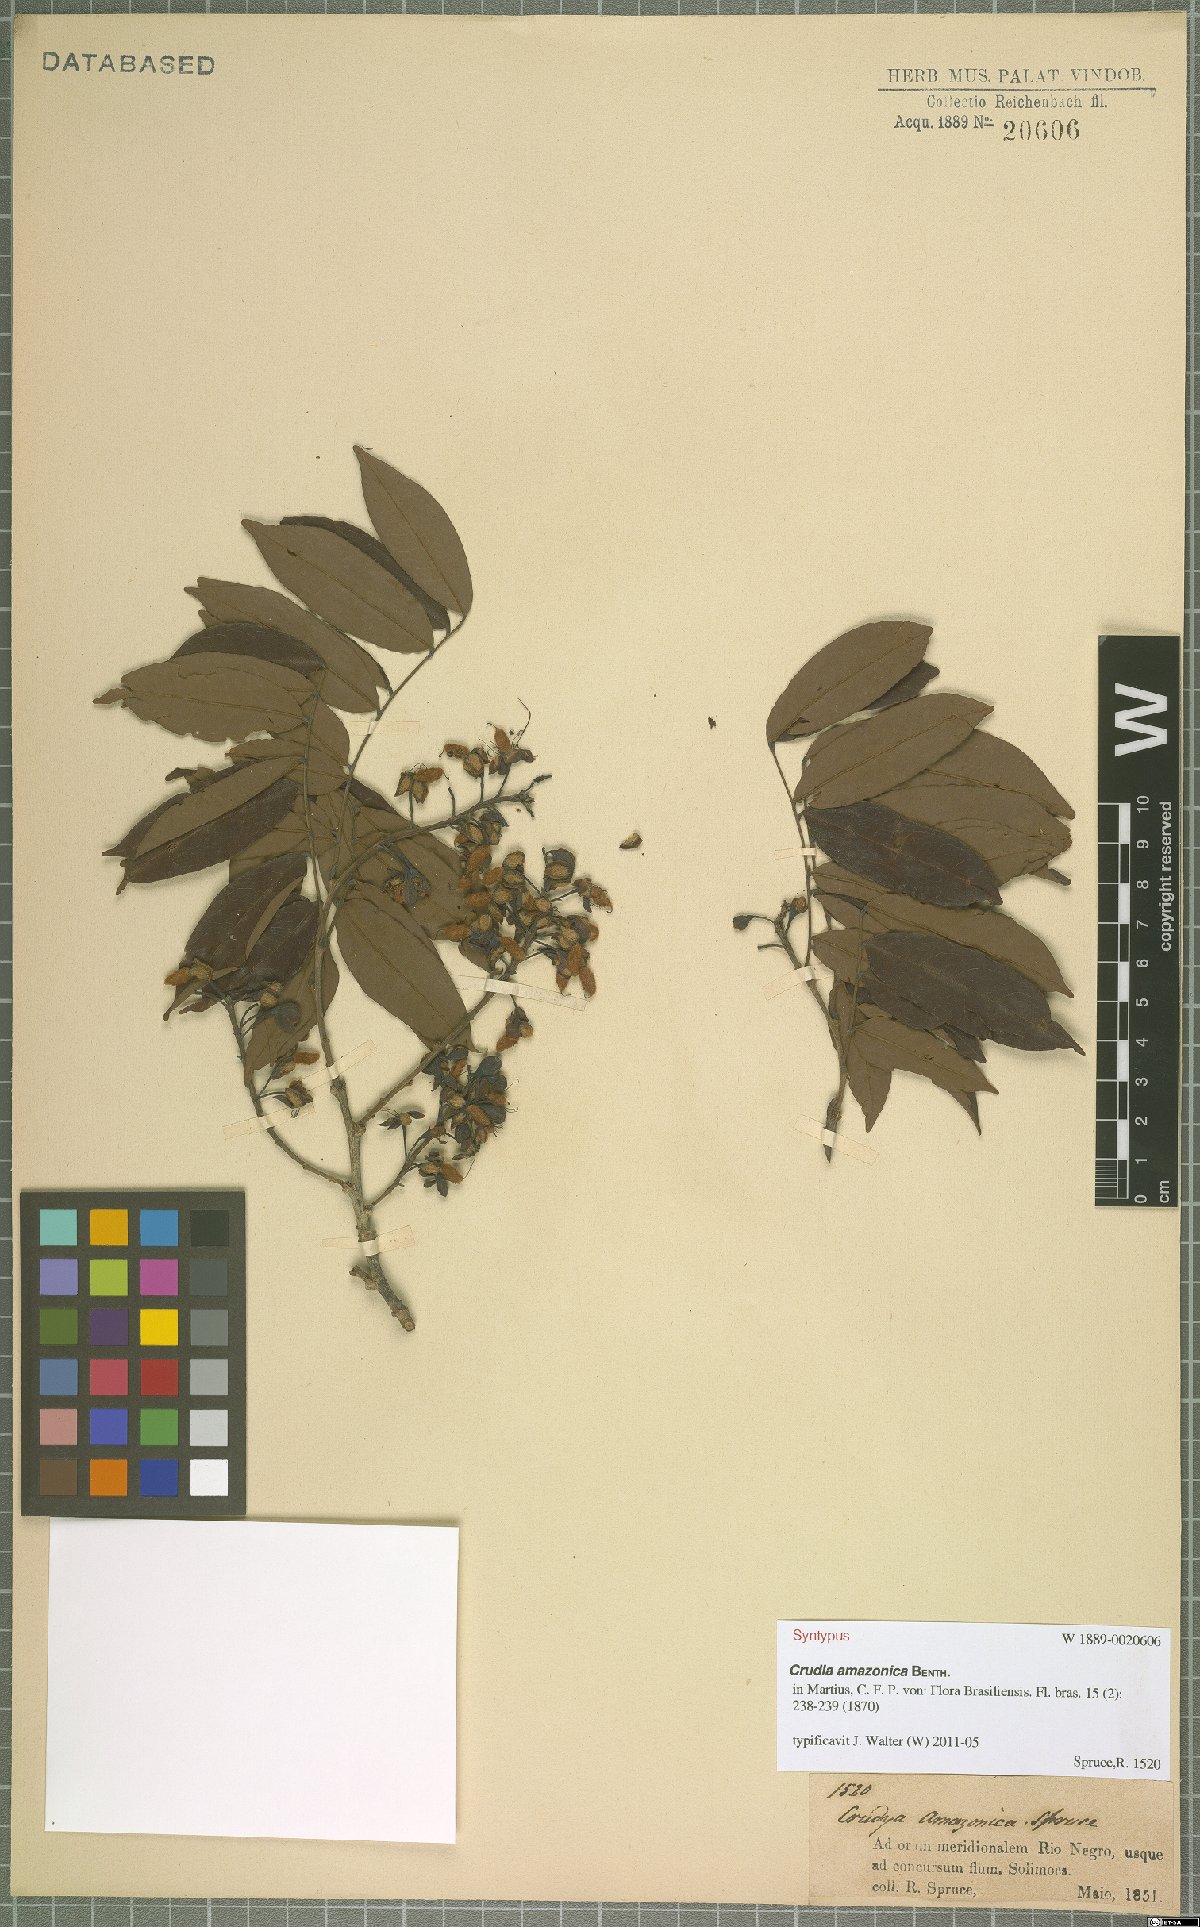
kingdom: Plantae
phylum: Tracheophyta
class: Magnoliopsida
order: Fabales
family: Fabaceae
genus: Crudia
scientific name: Crudia amazonica
